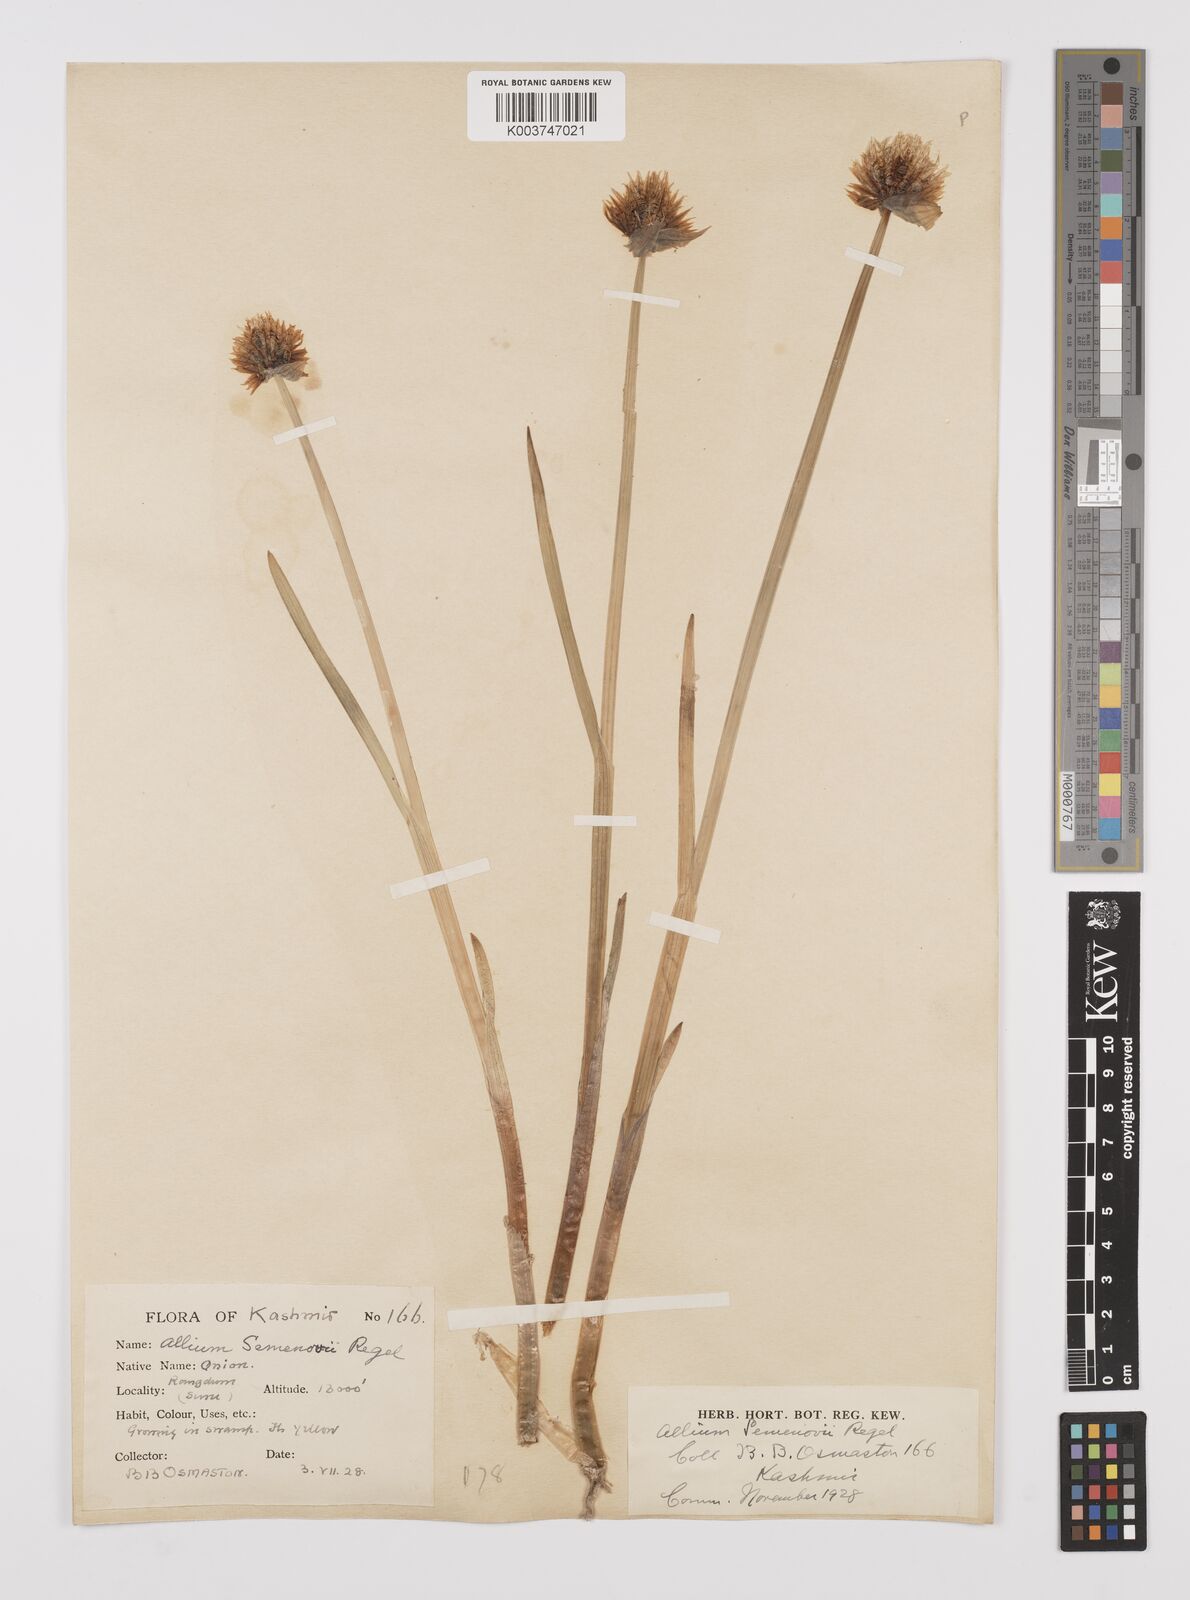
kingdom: Plantae
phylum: Tracheophyta
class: Liliopsida
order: Asparagales
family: Amaryllidaceae
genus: Allium
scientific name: Allium semenovii
